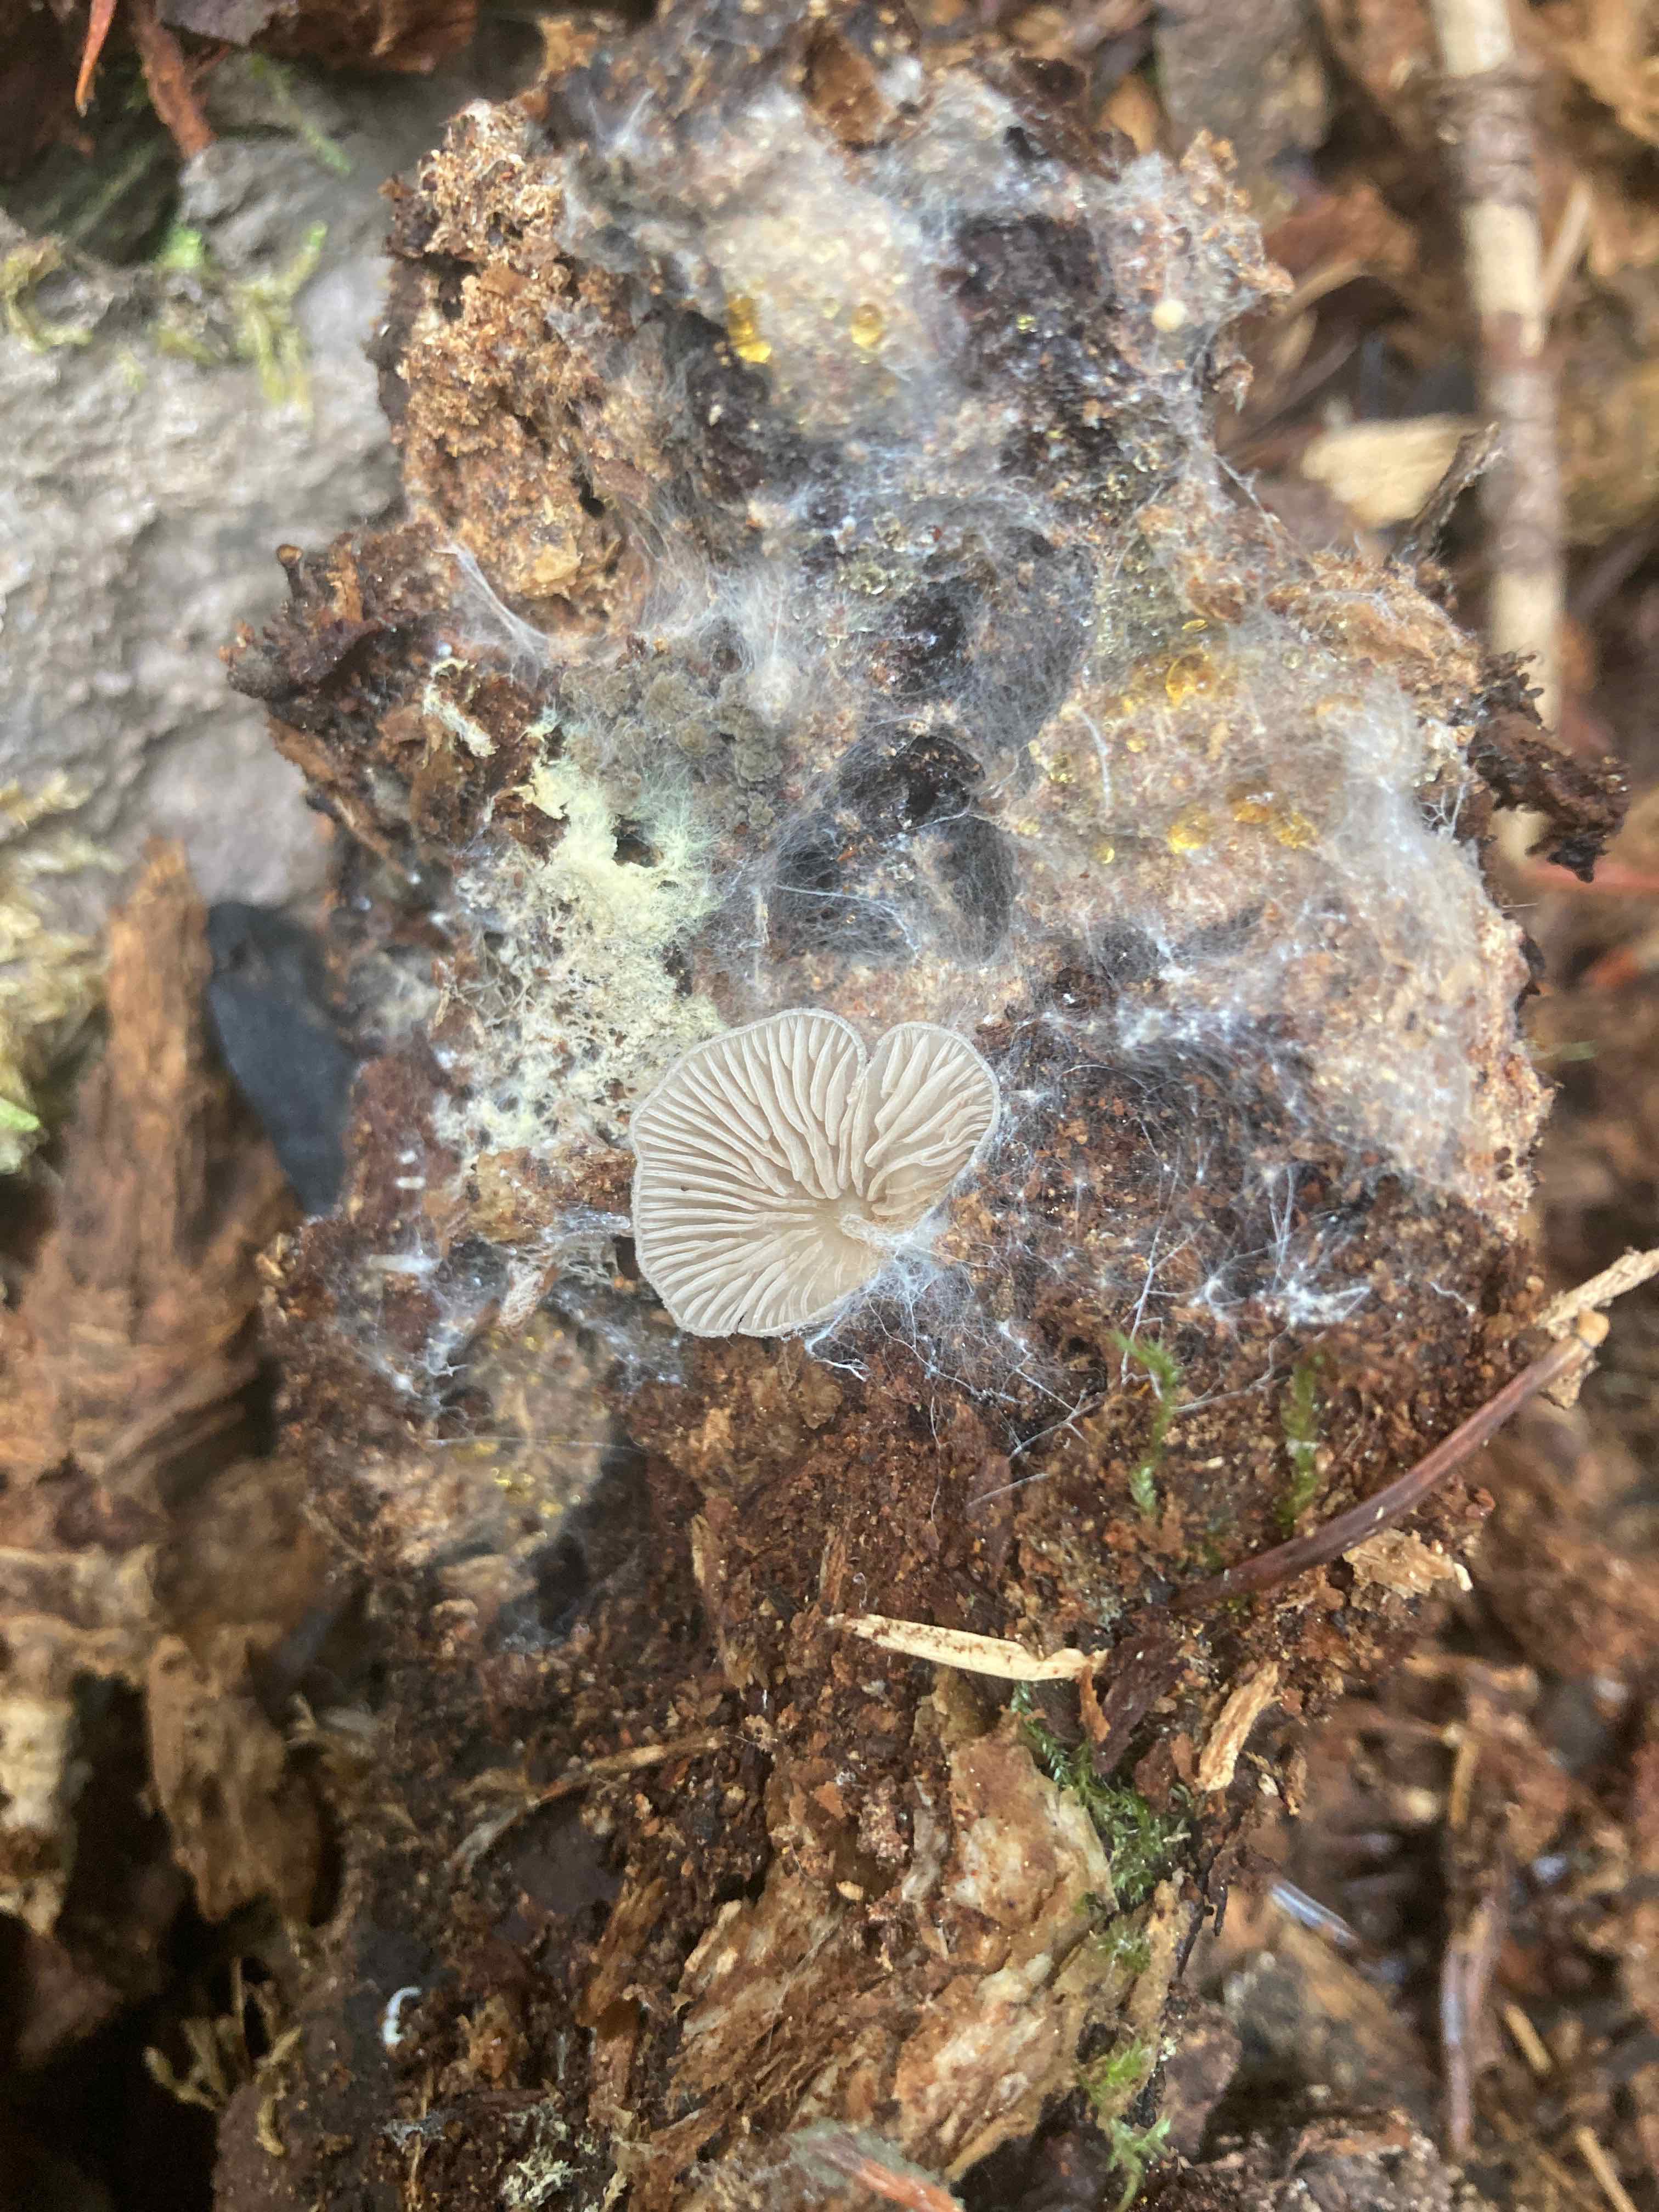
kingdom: Fungi
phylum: Basidiomycota
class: Agaricomycetes
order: Agaricales
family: Entolomataceae
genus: Entoloma
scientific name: Entoloma byssisedum
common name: vifte-rødblad
